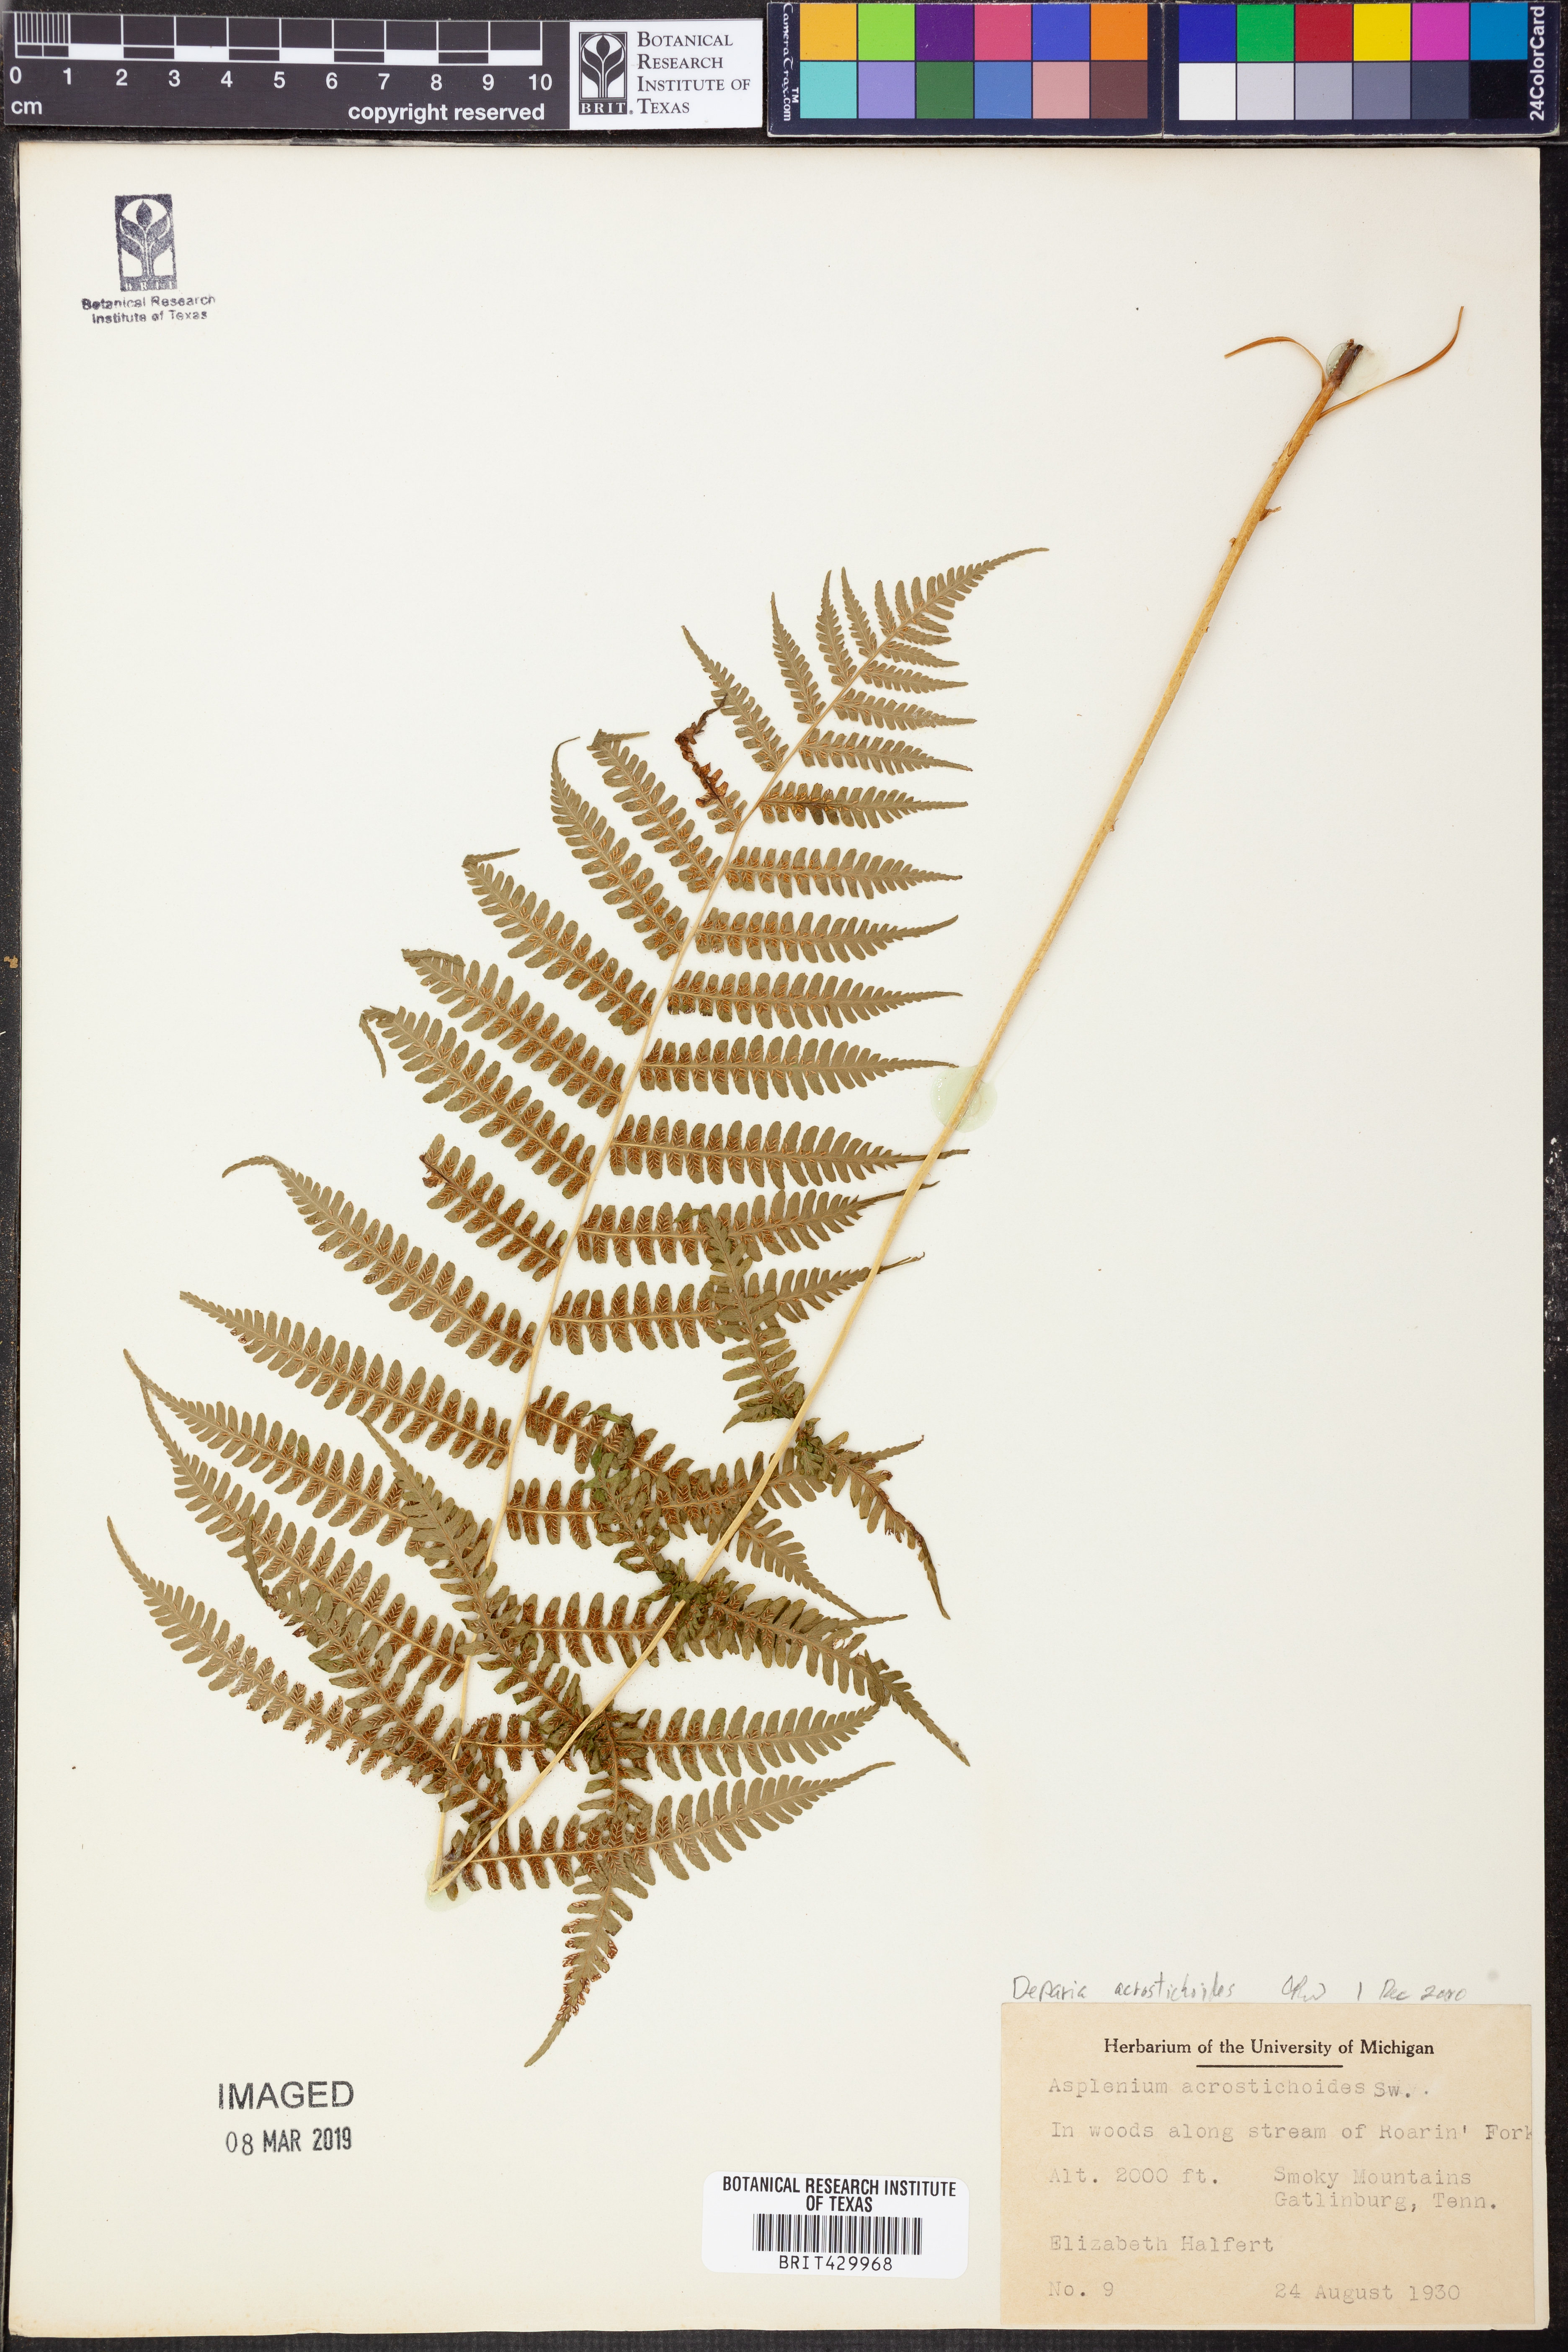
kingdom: Plantae
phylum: Tracheophyta
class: Polypodiopsida
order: Polypodiales
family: Athyriaceae
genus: Deparia
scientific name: Deparia acrostichoides
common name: Silver false spleenwort
